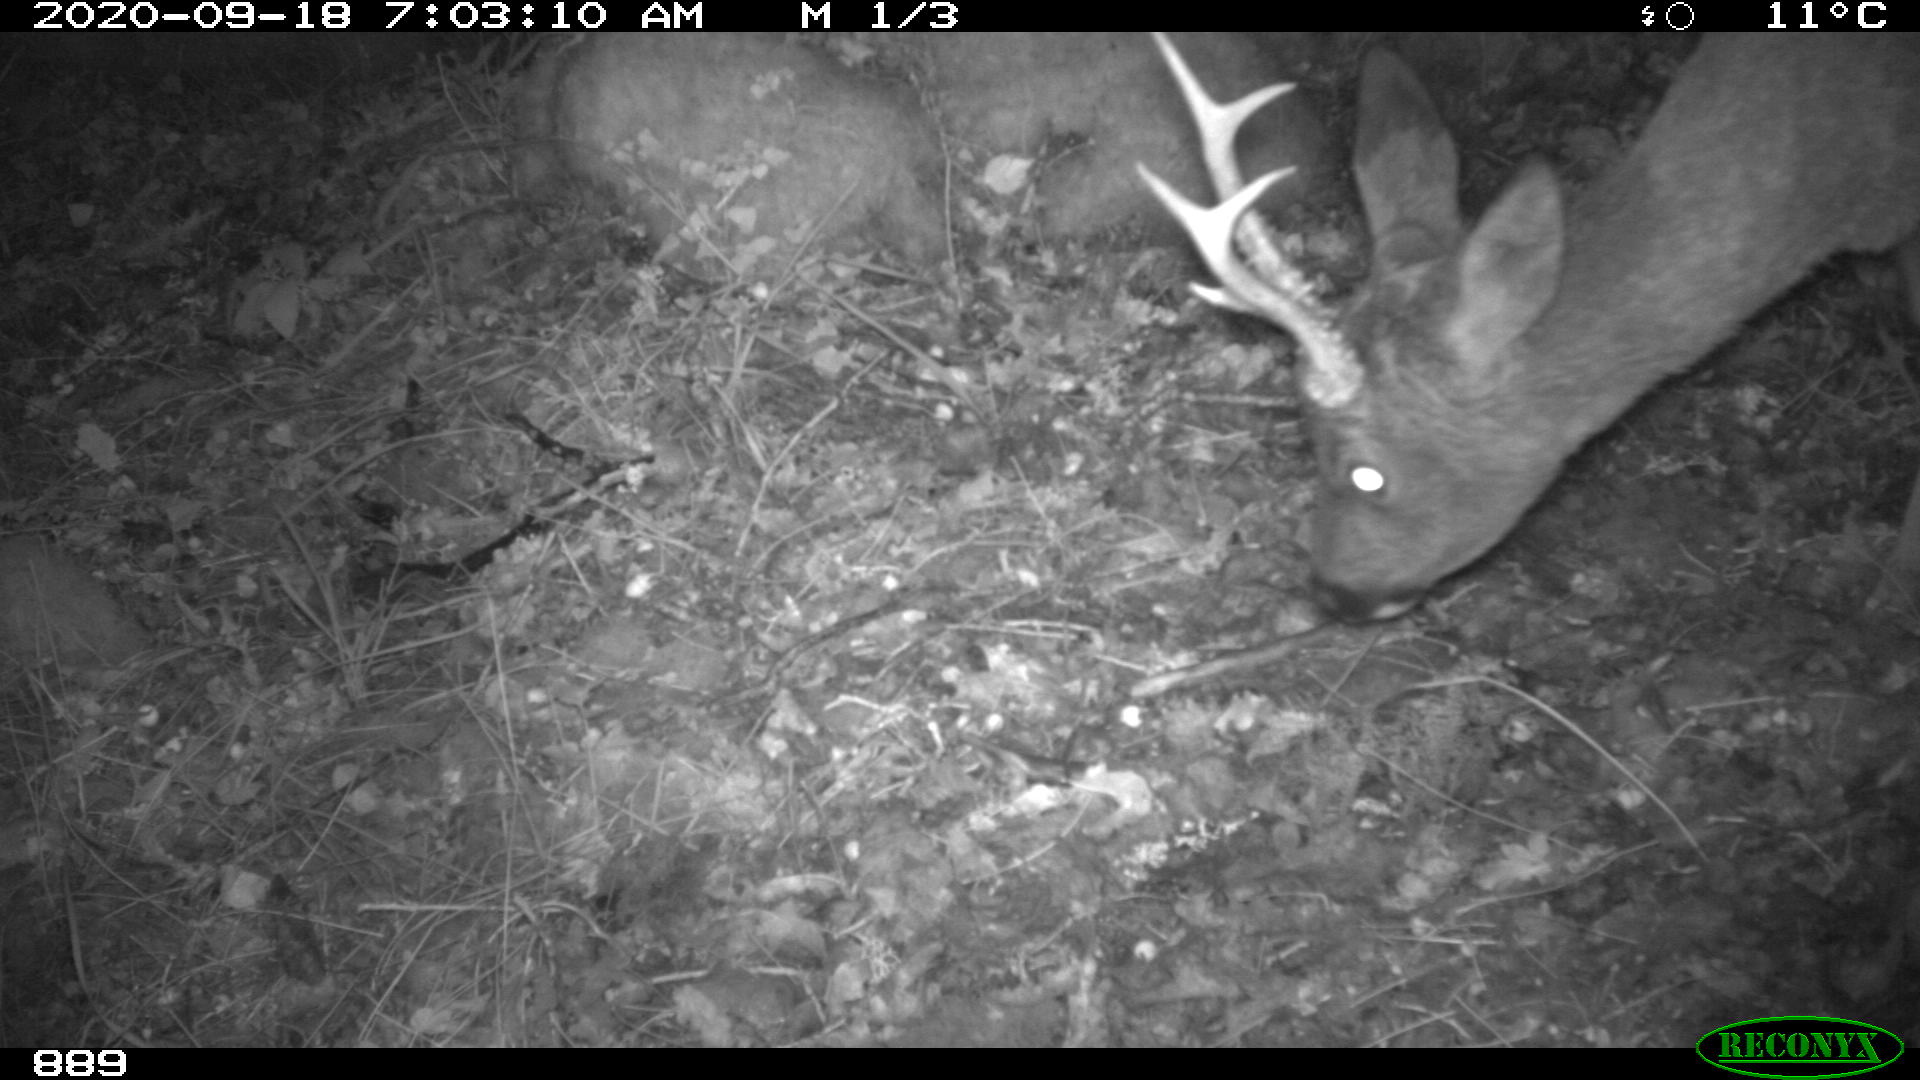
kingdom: Animalia
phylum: Chordata
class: Mammalia
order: Artiodactyla
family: Cervidae
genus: Capreolus
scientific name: Capreolus capreolus
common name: Western roe deer
